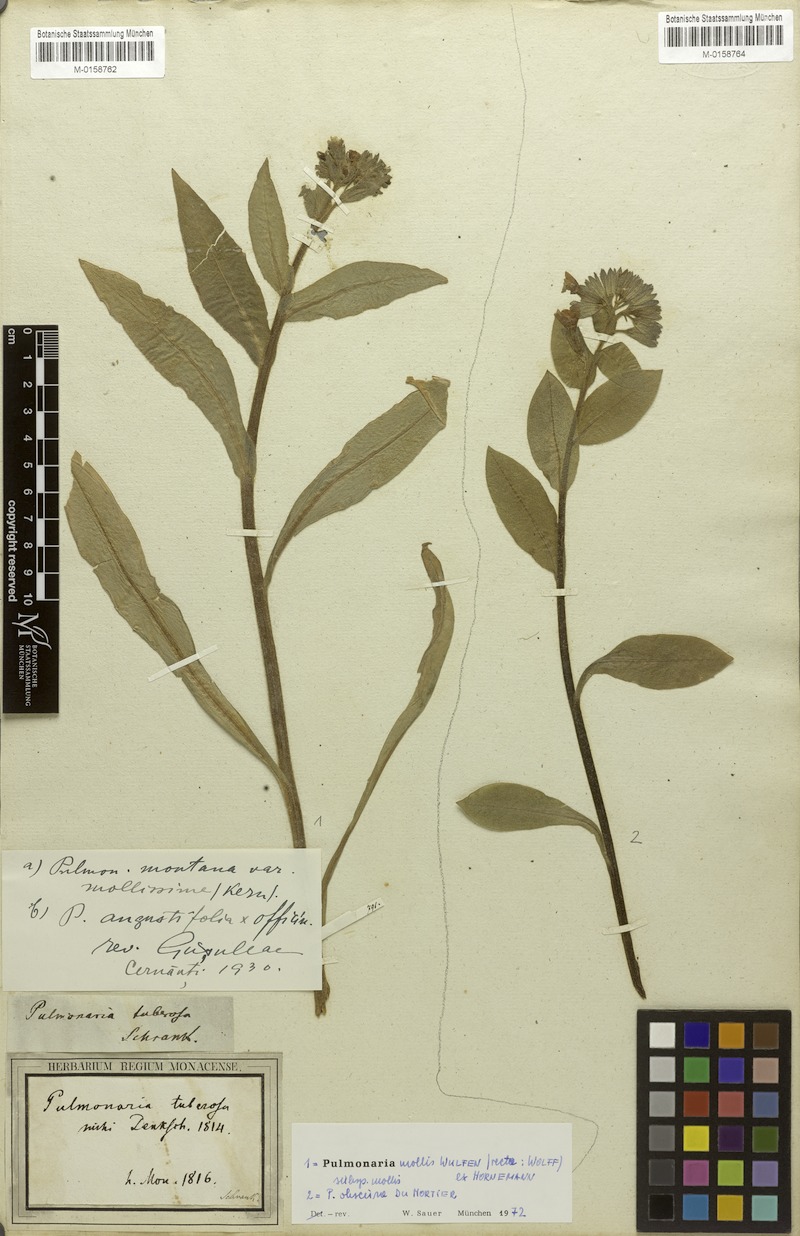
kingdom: Plantae
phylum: Tracheophyta
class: Magnoliopsida
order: Boraginales
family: Boraginaceae
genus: Pulmonaria
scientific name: Pulmonaria mollis
